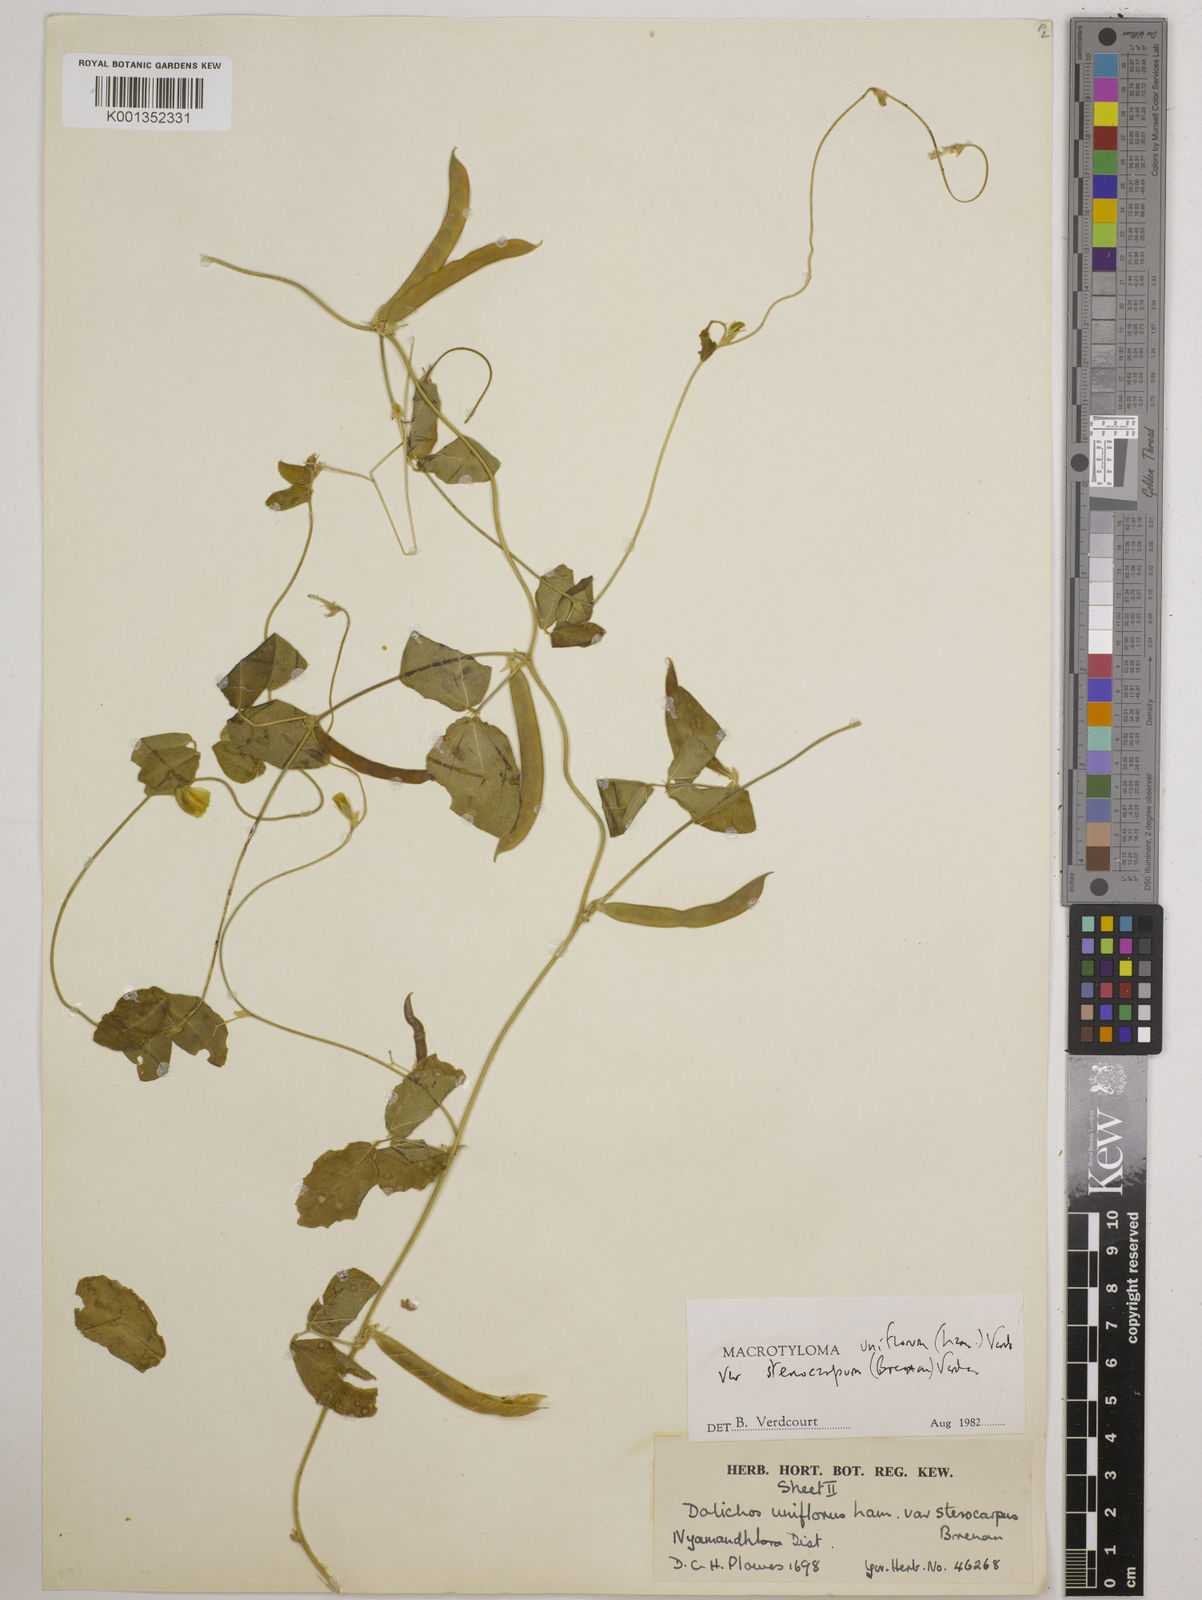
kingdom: Plantae
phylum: Tracheophyta
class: Magnoliopsida
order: Fabales
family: Fabaceae
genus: Macrotyloma
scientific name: Macrotyloma
